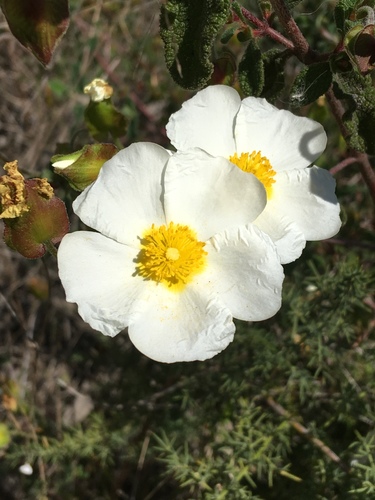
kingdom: Plantae
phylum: Tracheophyta
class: Magnoliopsida
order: Malvales
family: Cistaceae
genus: Cistus
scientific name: Cistus salviifolius
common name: Salvia cistus
